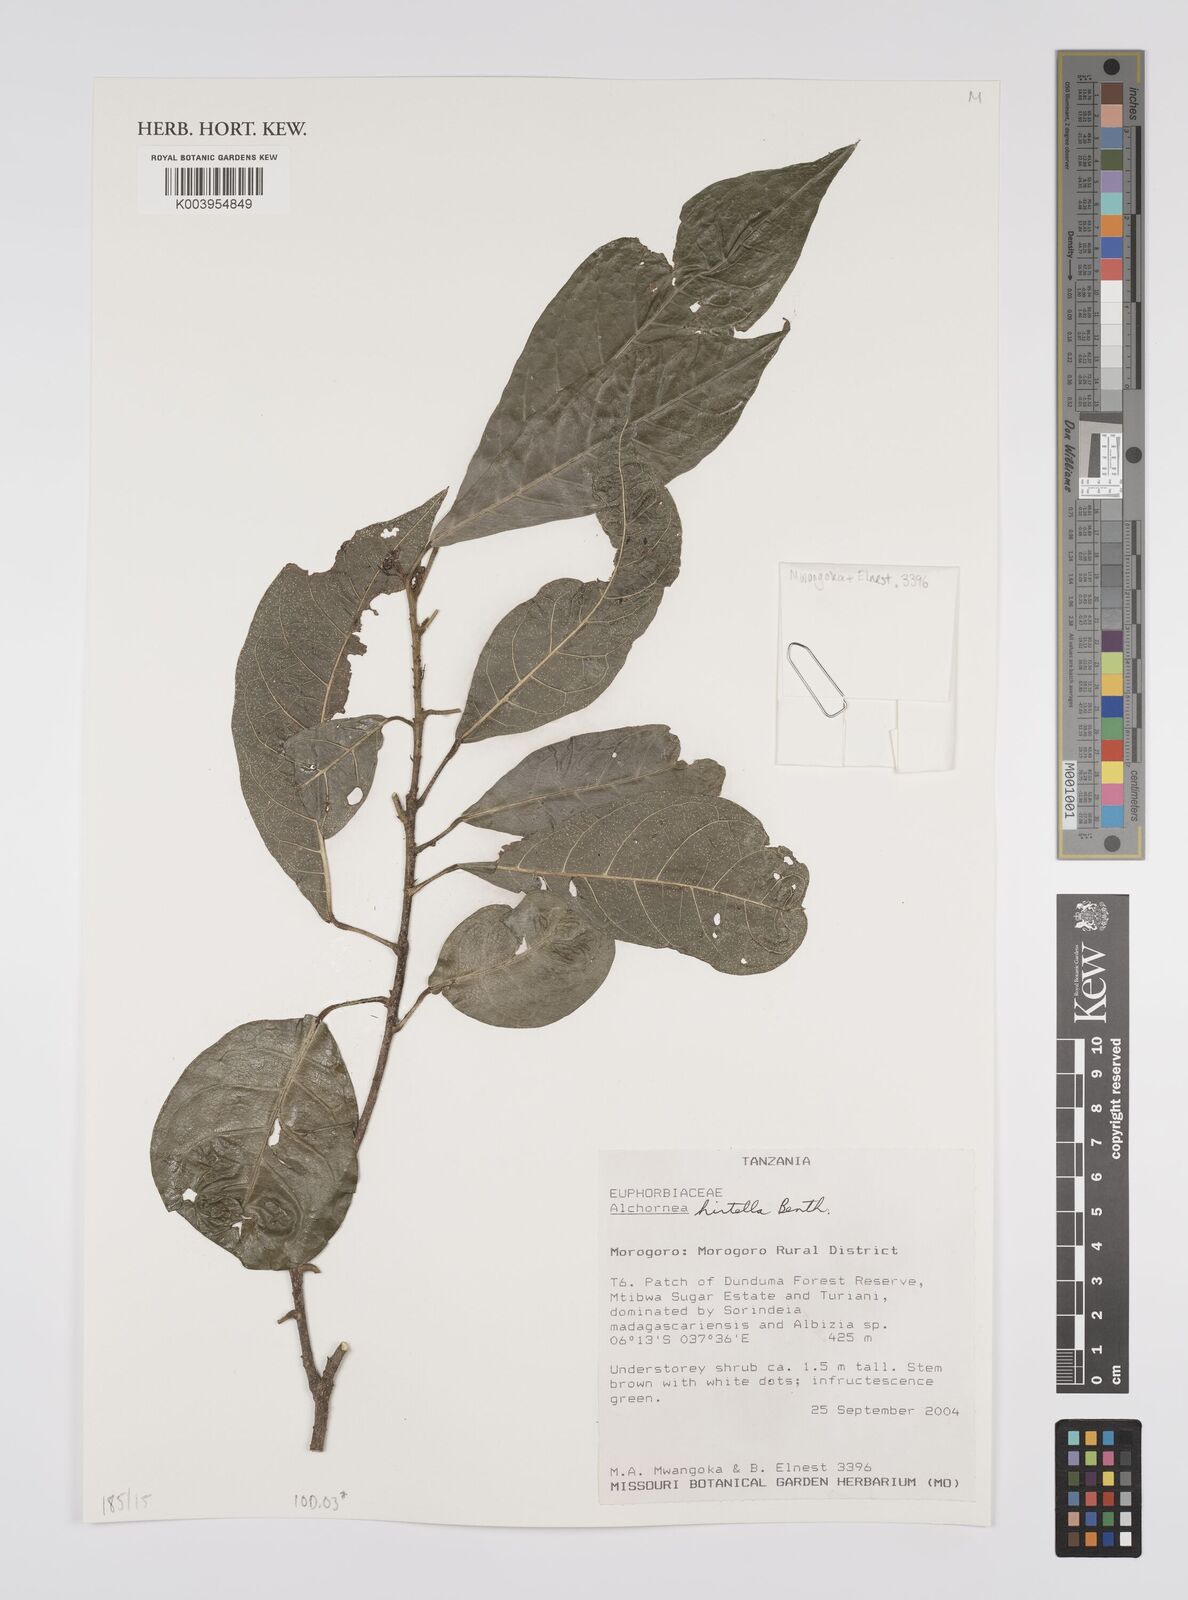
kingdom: Plantae
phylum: Tracheophyta
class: Magnoliopsida
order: Malpighiales
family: Euphorbiaceae
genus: Alchornea
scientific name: Alchornea hirtella
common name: Forest bead-string
